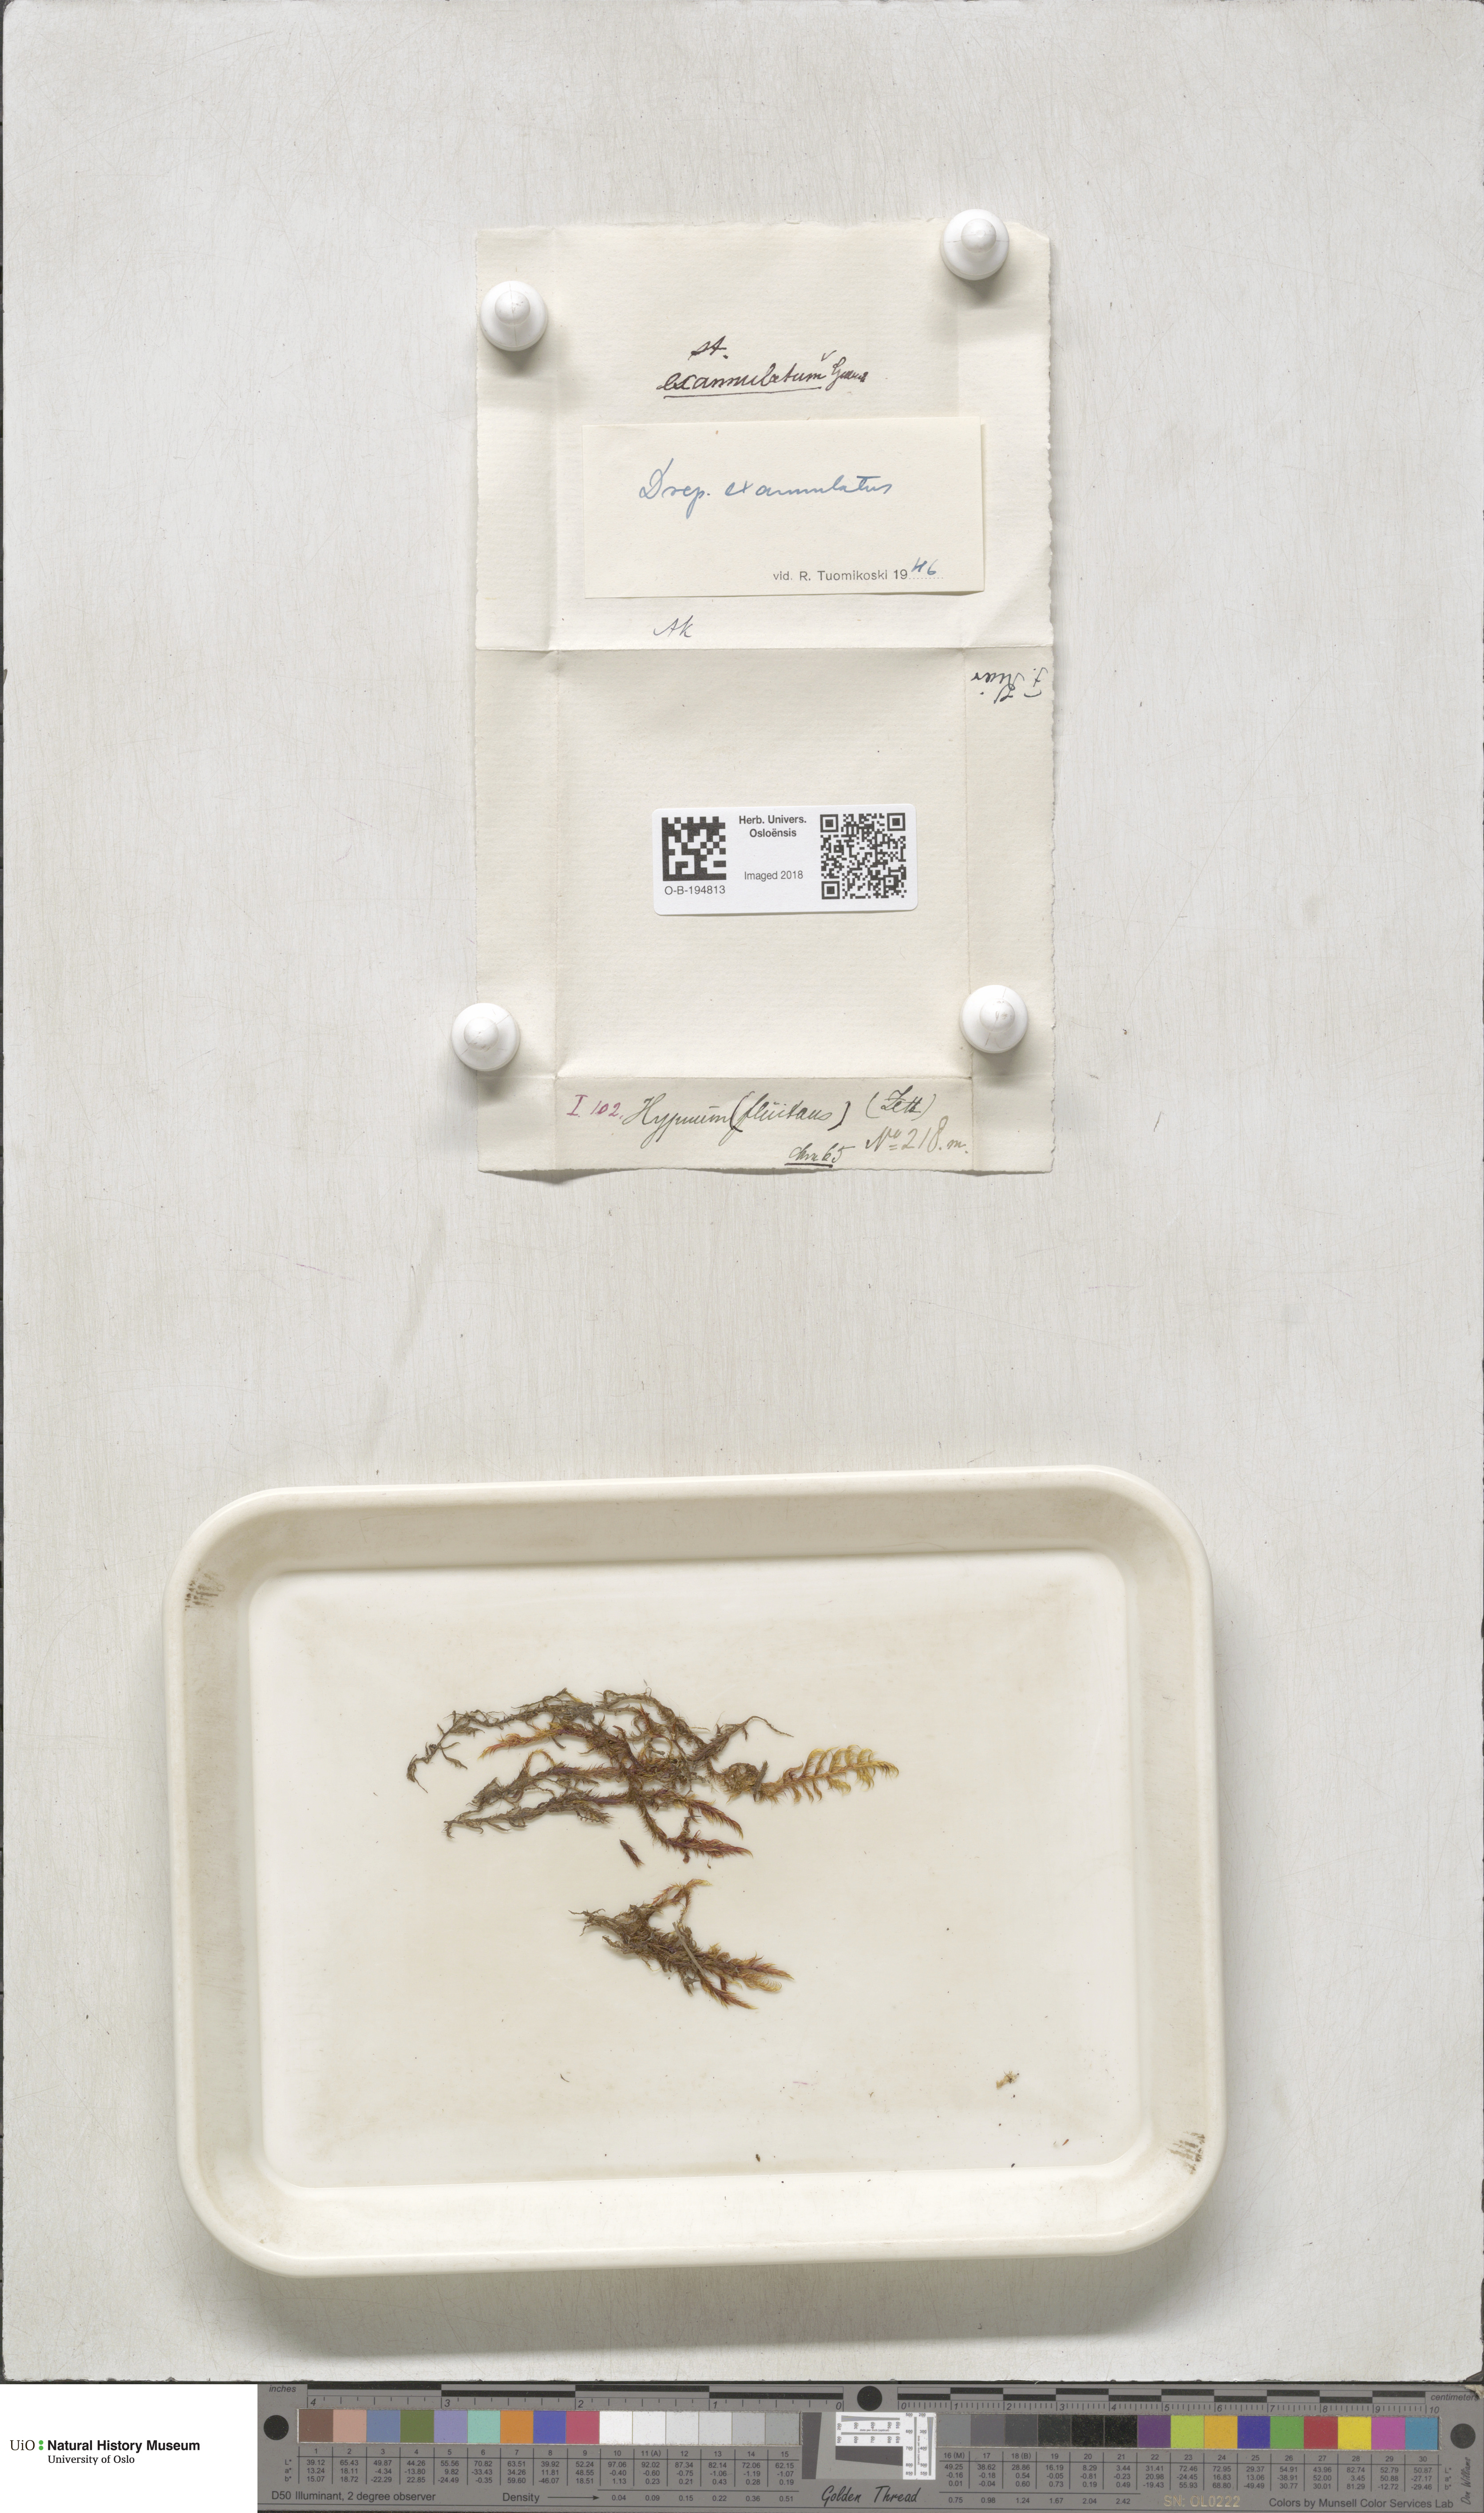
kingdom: Plantae
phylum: Bryophyta
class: Bryopsida
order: Hypnales
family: Calliergonaceae
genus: Sarmentypnum
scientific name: Sarmentypnum exannulatum
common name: Ringless spoon moss
